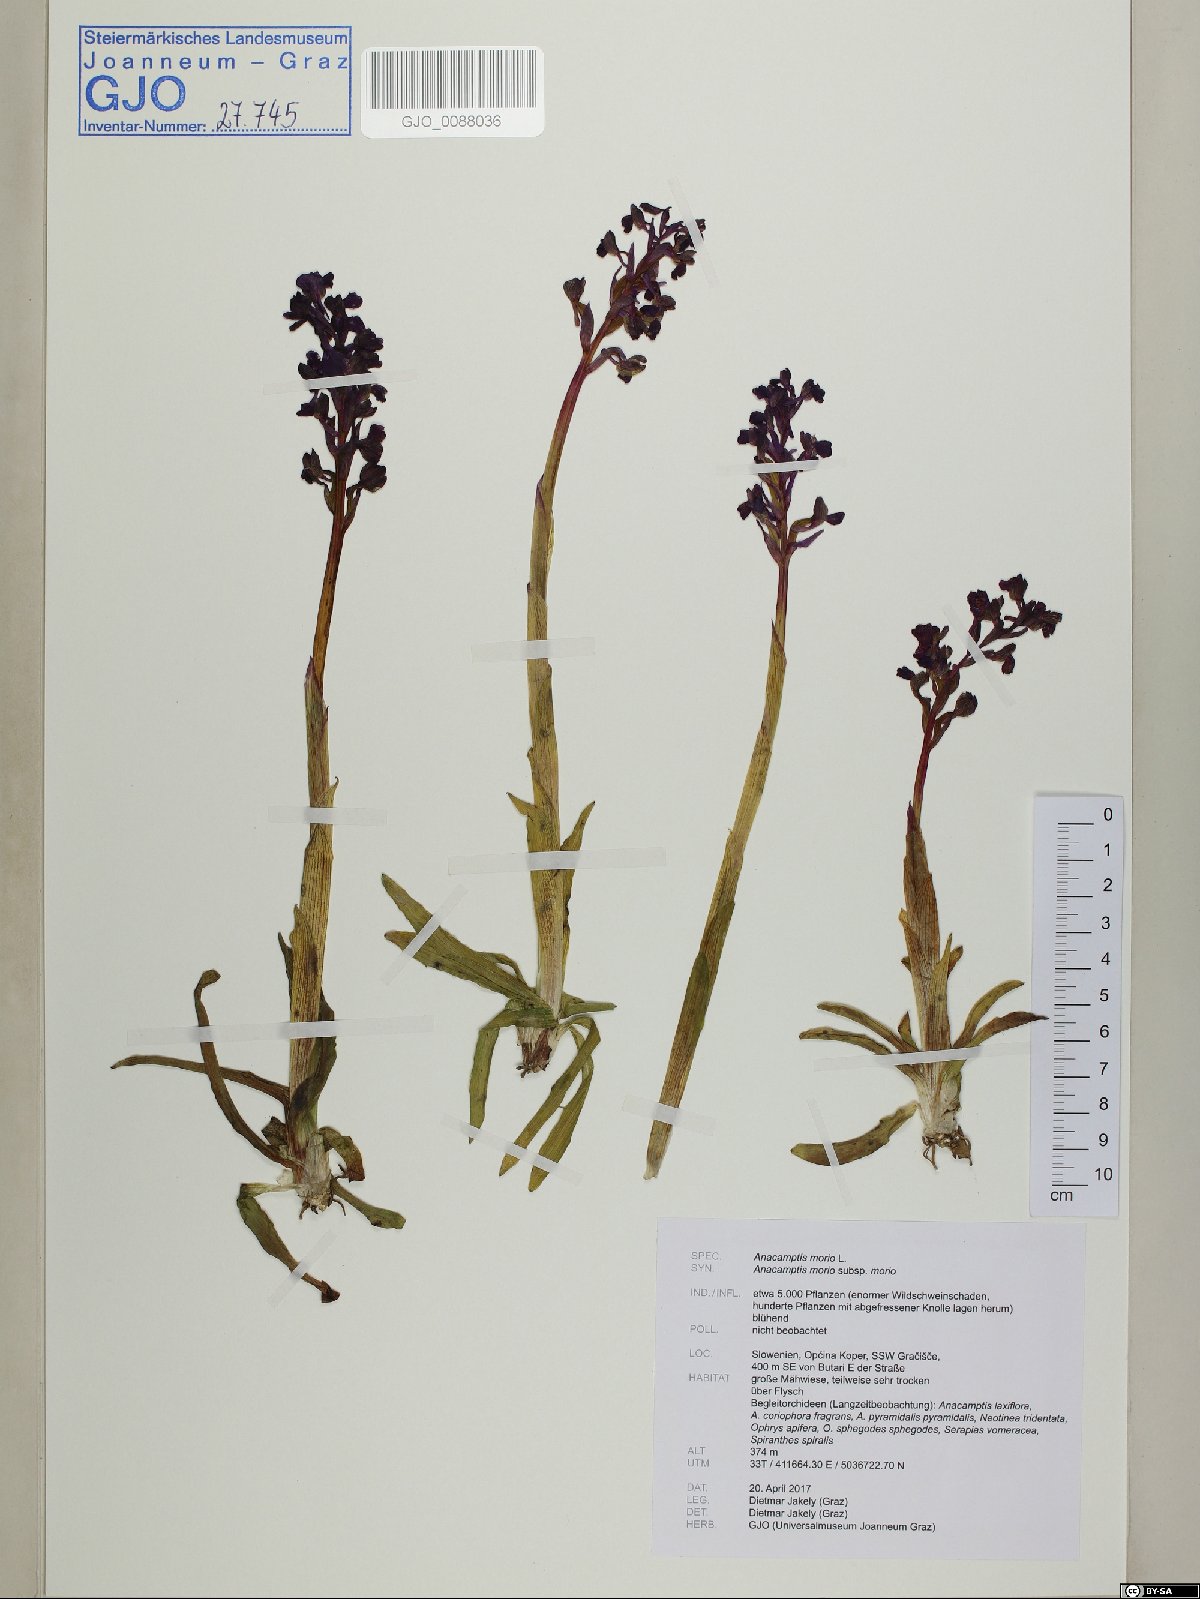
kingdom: Plantae
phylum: Tracheophyta
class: Liliopsida
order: Asparagales
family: Orchidaceae
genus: Anacamptis
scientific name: Anacamptis morio
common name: Green-winged orchid
